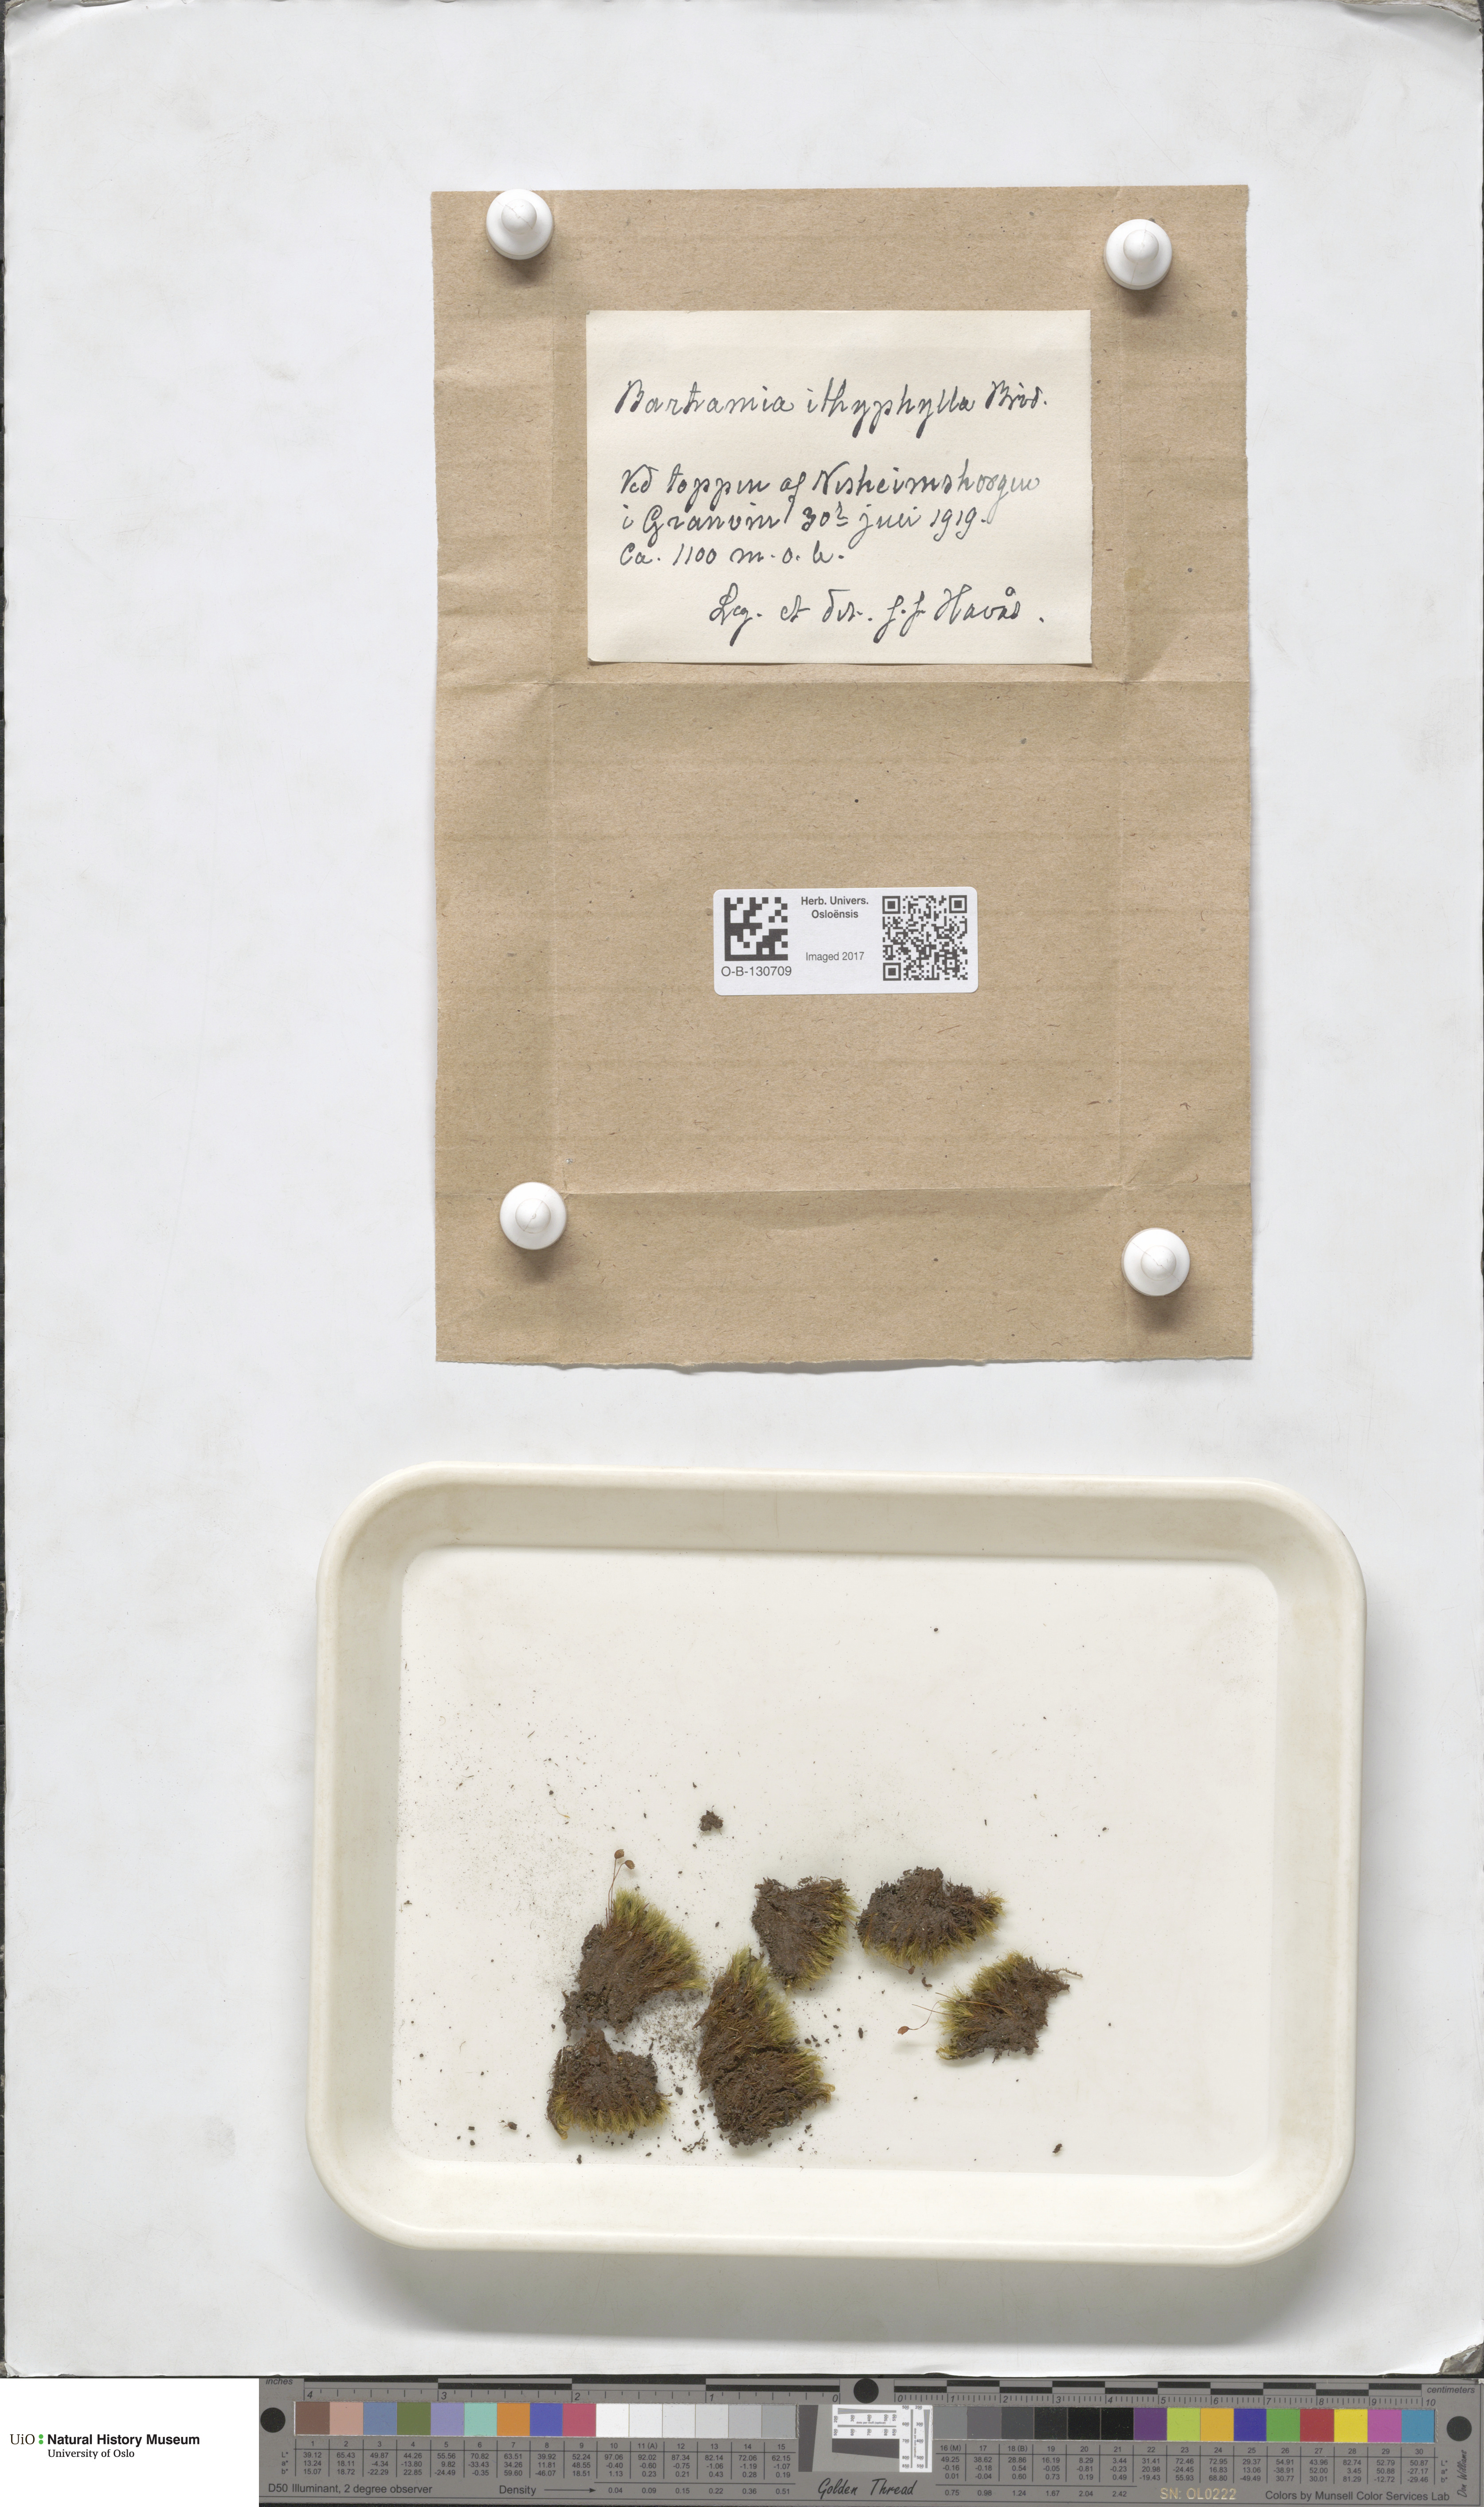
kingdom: Plantae
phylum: Bryophyta
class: Bryopsida
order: Bartramiales
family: Bartramiaceae
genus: Bartramia
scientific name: Bartramia ithyphylla
